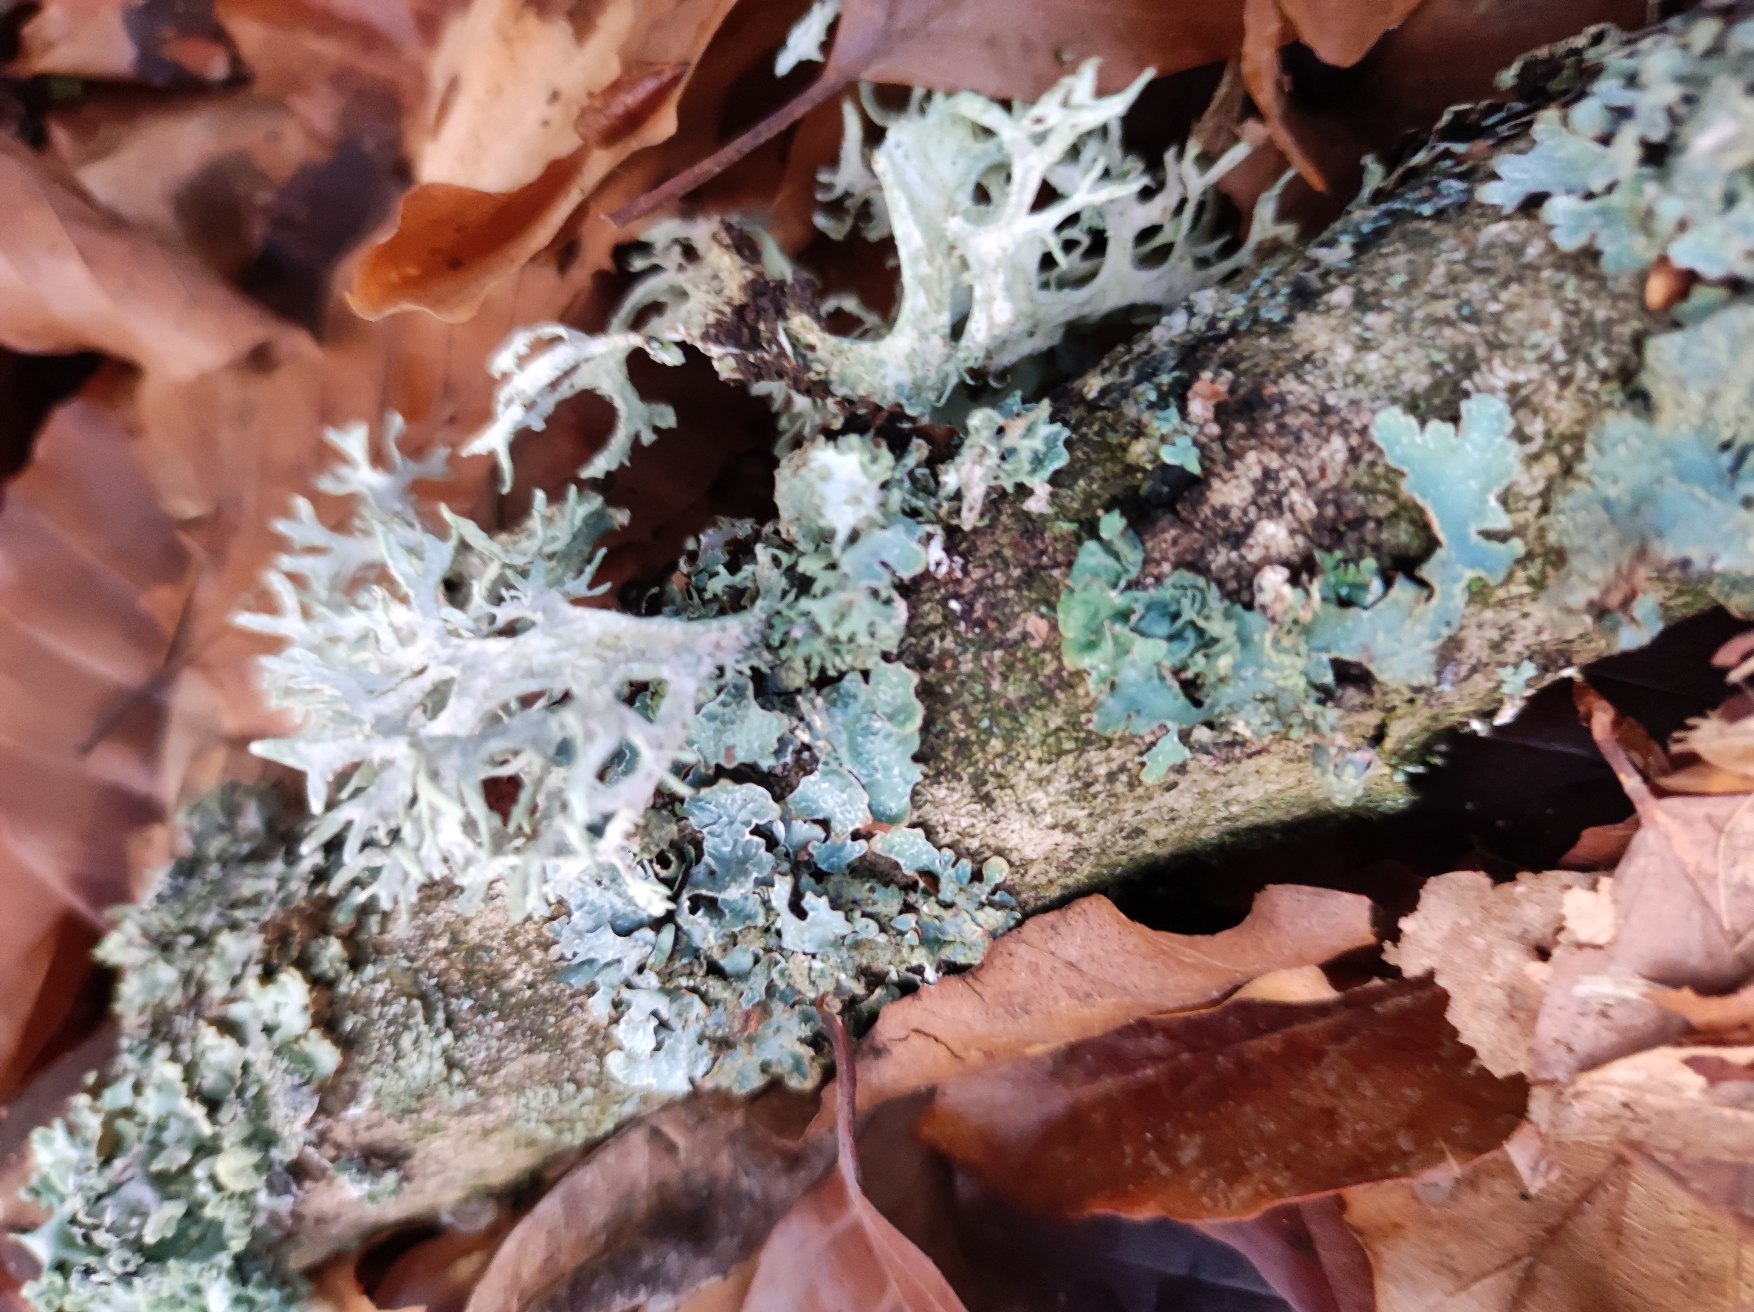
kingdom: Fungi
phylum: Ascomycota
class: Lecanoromycetes
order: Lecanorales
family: Parmeliaceae
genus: Evernia
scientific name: Evernia prunastri
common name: Almindelig slåenlav
